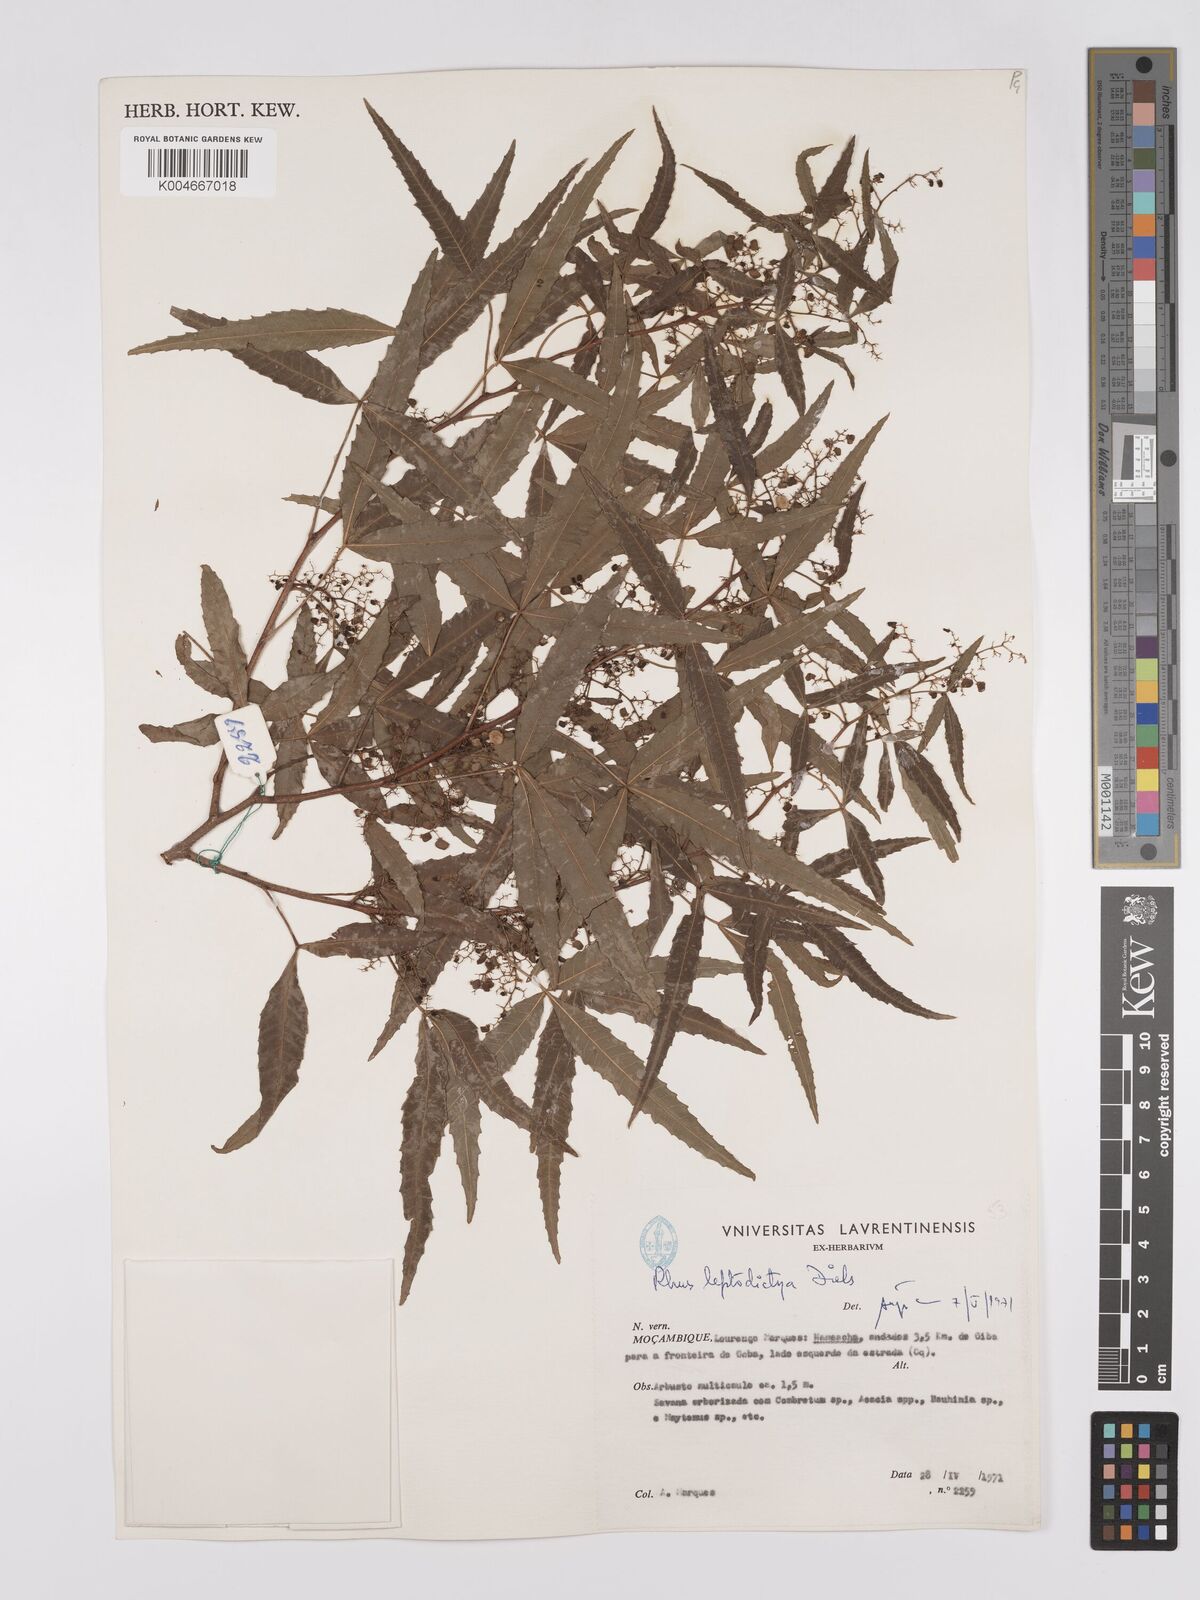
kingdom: Plantae
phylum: Tracheophyta
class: Magnoliopsida
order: Sapindales
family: Anacardiaceae
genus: Searsia
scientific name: Searsia leptodictya
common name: Mountain karee
